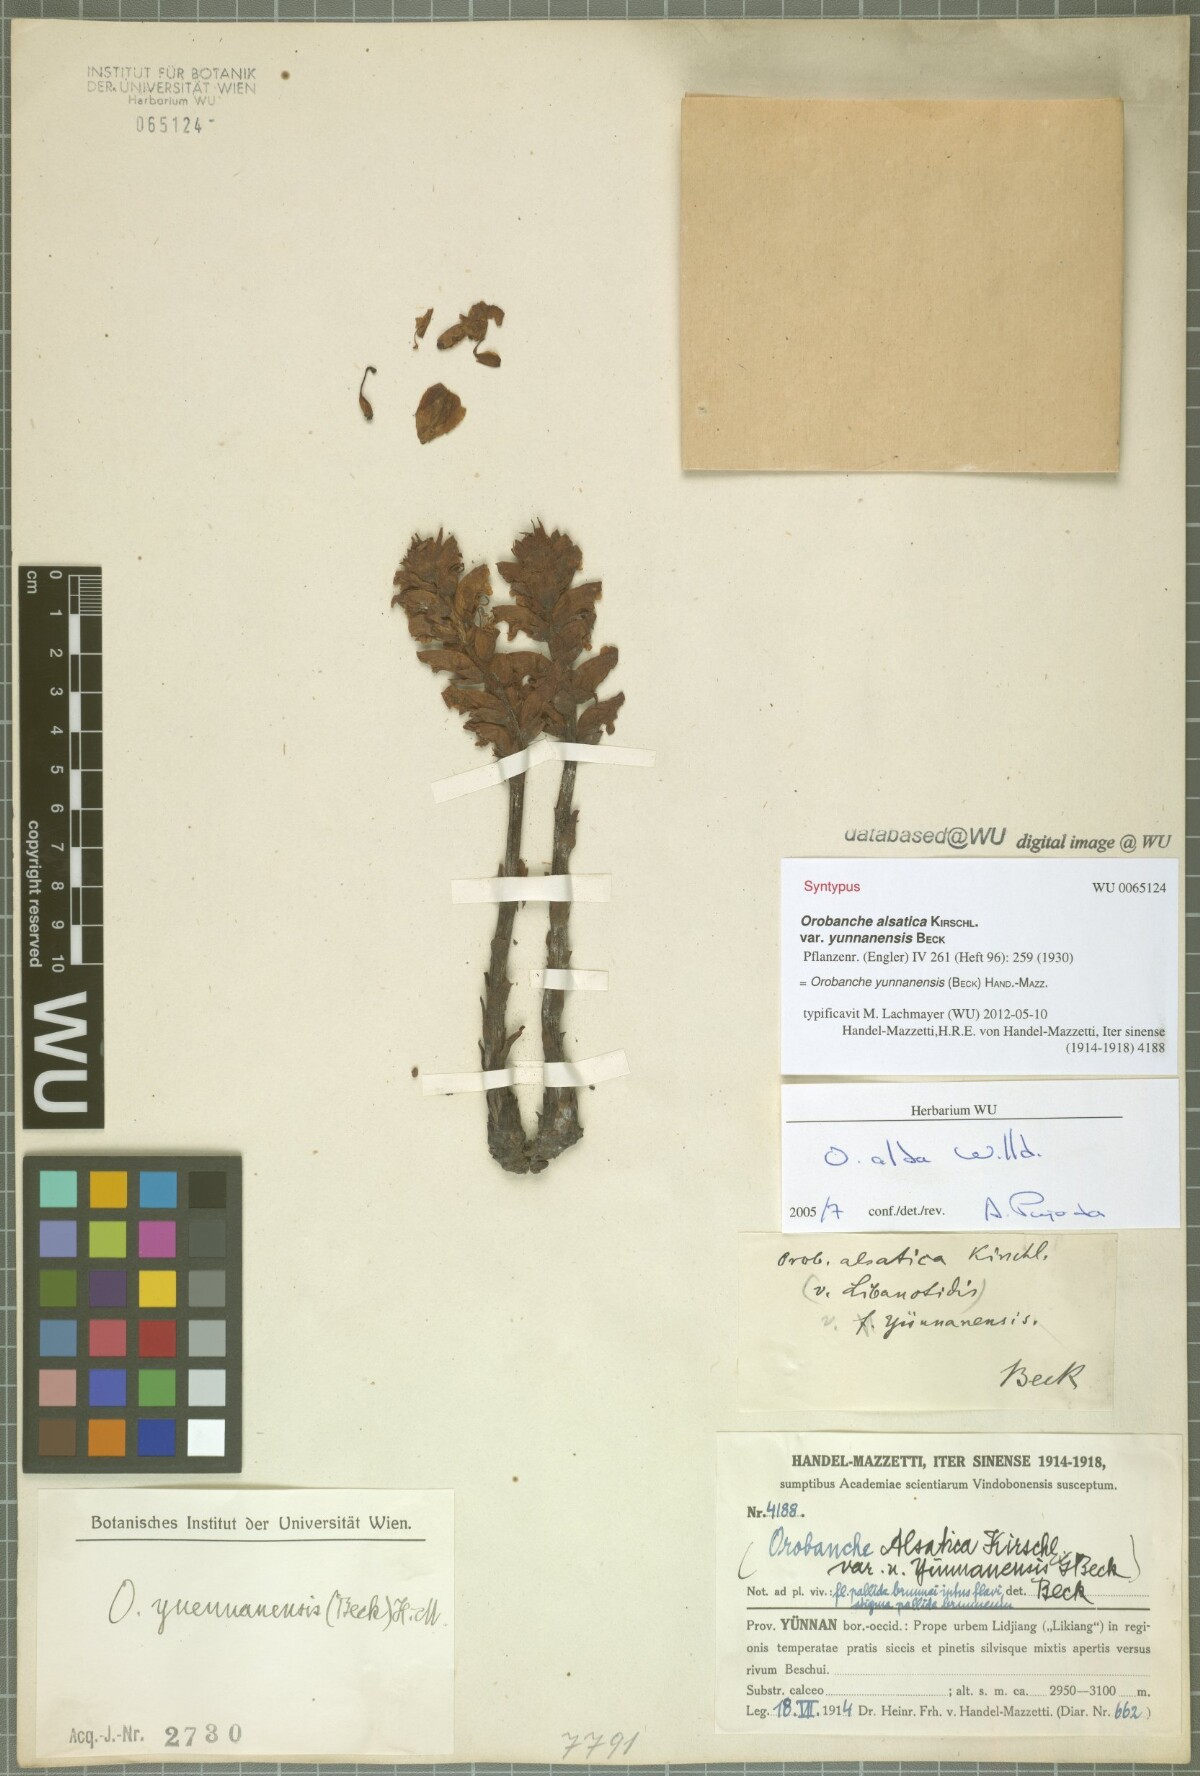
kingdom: Plantae
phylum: Tracheophyta
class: Magnoliopsida
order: Lamiales
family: Orobanchaceae
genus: Orobanche
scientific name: Orobanche yunnanensis
